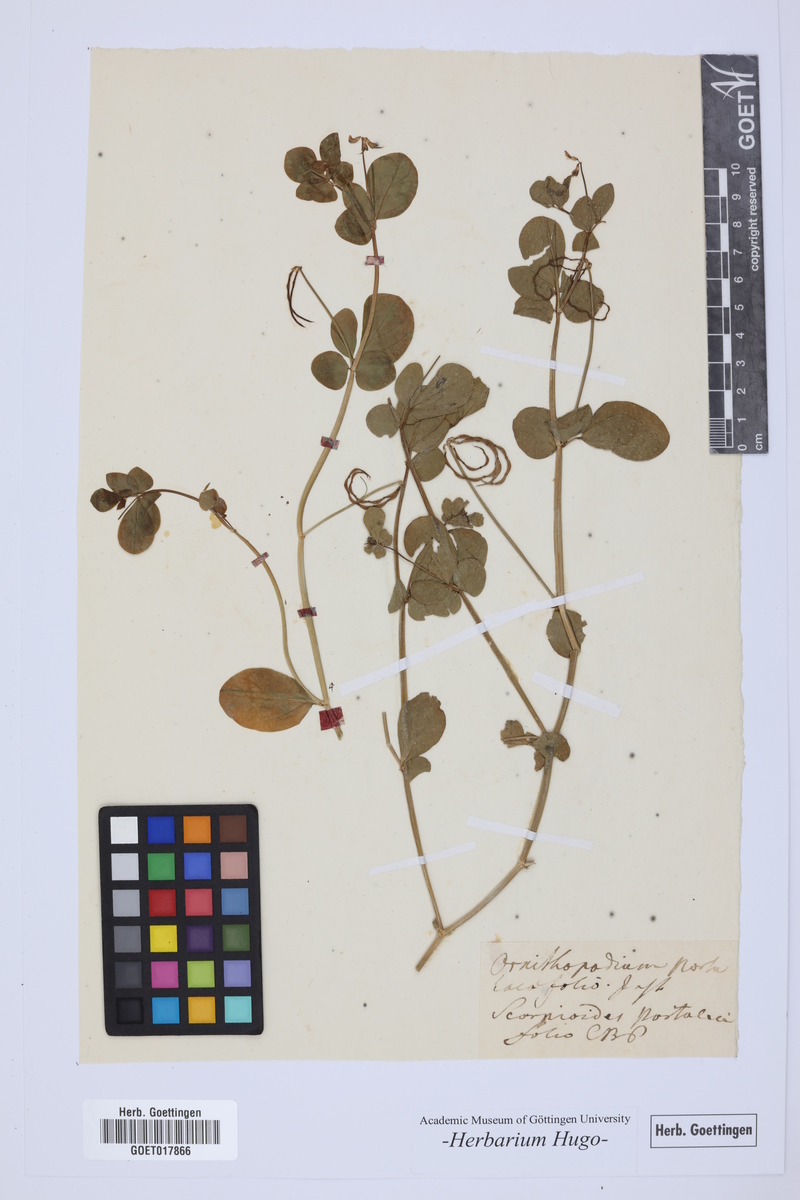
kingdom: Plantae
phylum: Tracheophyta
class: Magnoliopsida
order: Fabales
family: Fabaceae
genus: Coronilla
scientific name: Coronilla scorpioides
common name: Annual scorpion-vetch
